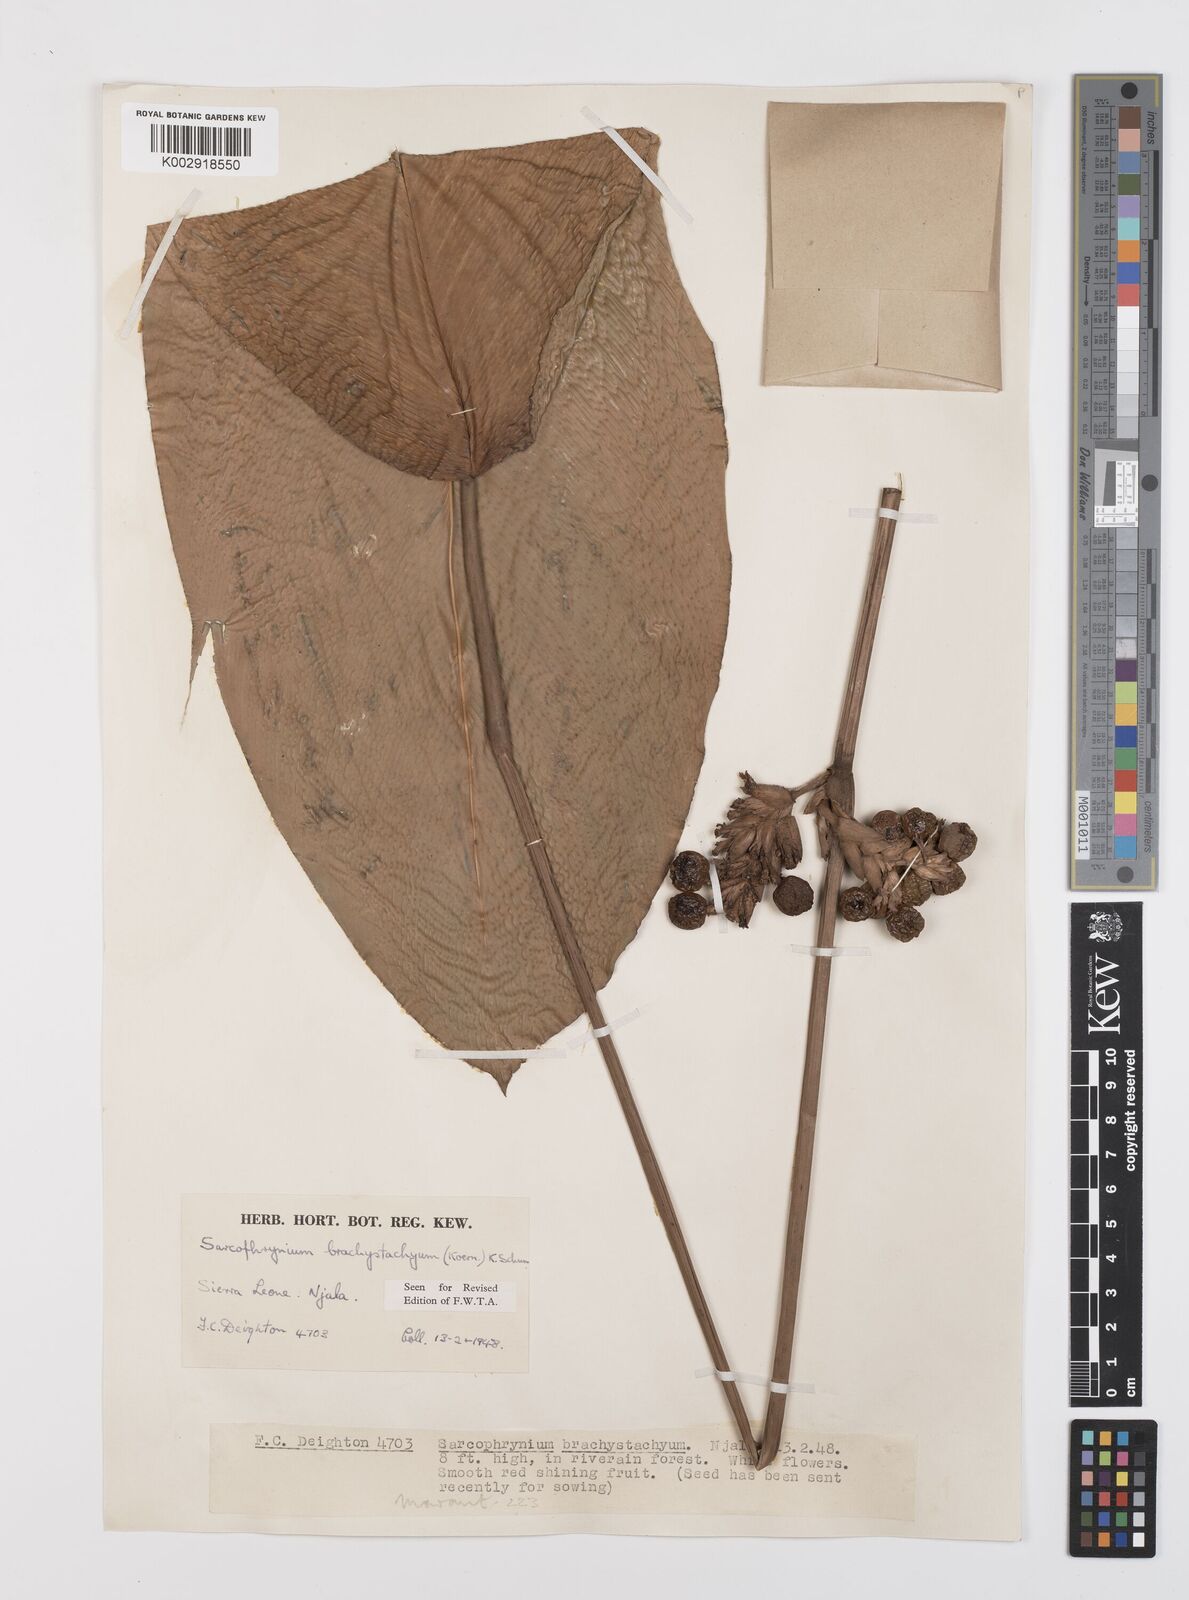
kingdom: Plantae
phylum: Tracheophyta
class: Liliopsida
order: Zingiberales
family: Marantaceae
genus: Sarcophrynium
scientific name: Sarcophrynium brachystachyum
